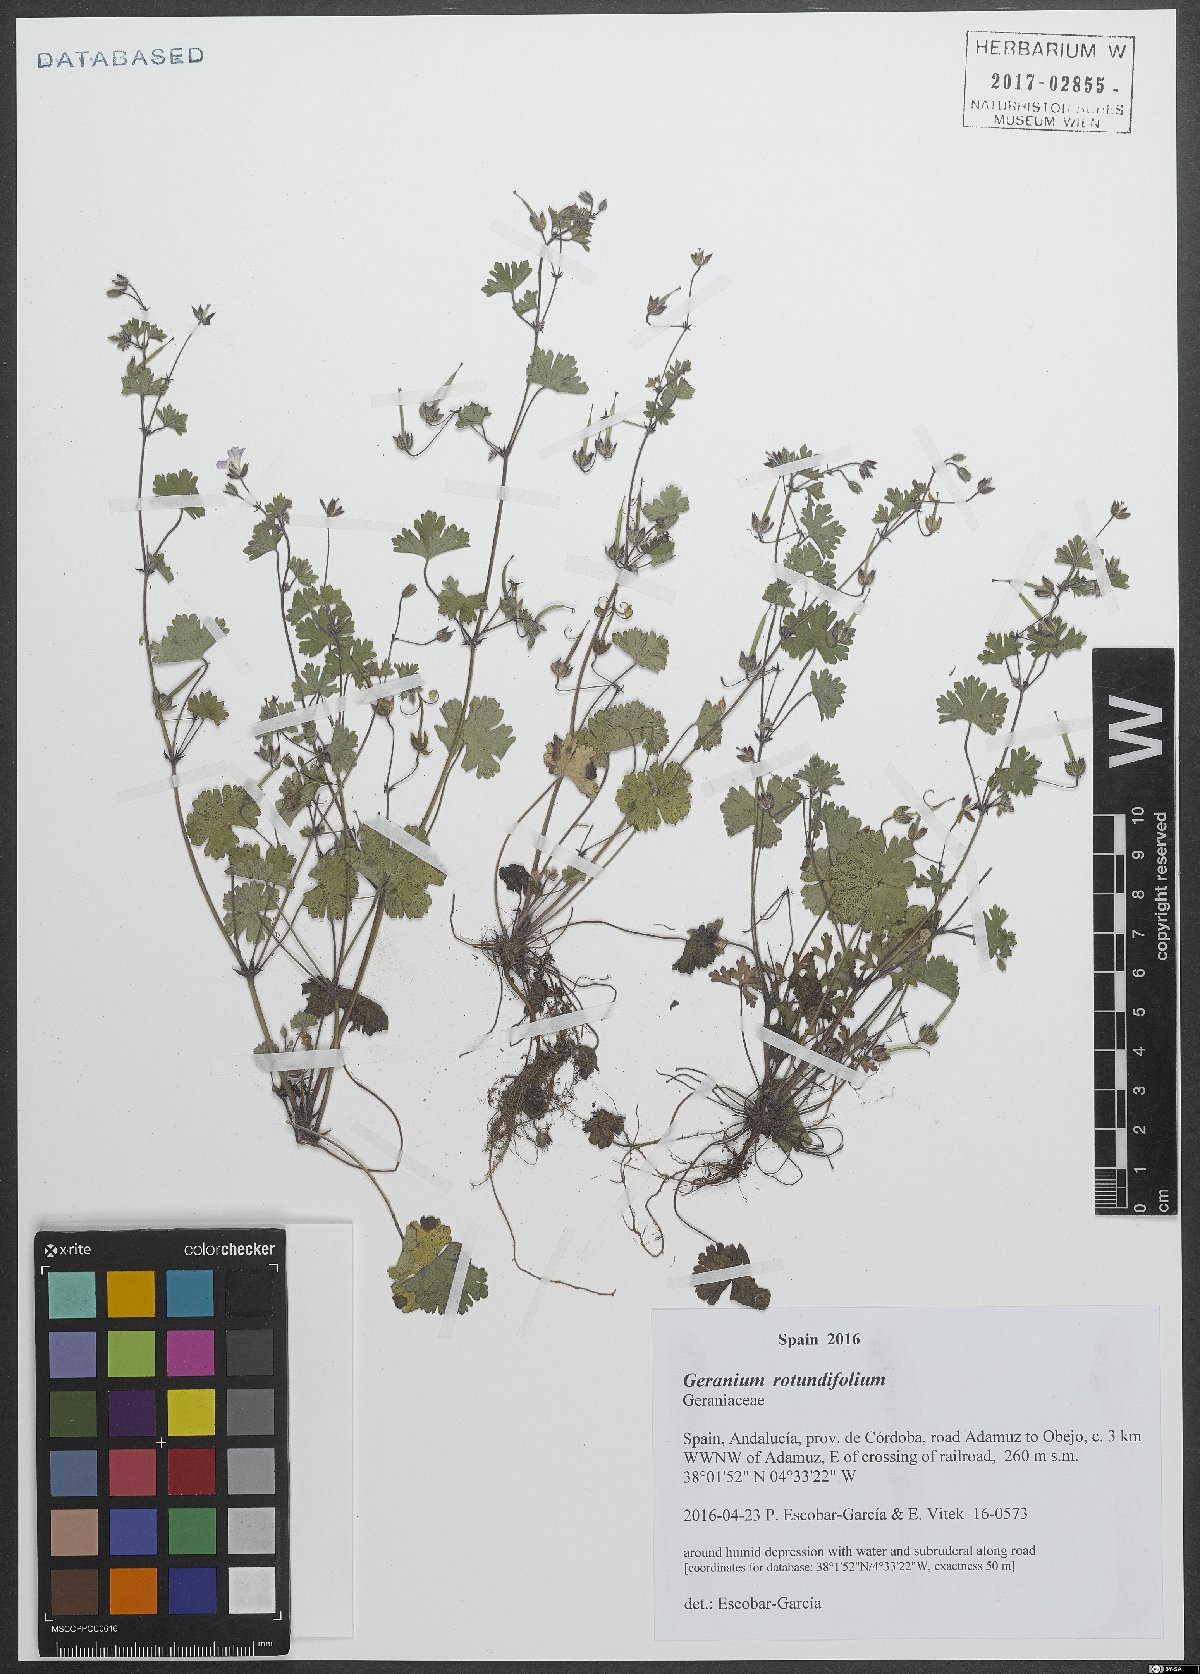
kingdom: Plantae
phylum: Tracheophyta
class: Magnoliopsida
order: Geraniales
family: Geraniaceae
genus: Geranium
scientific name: Geranium rotundifolium
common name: Round-leaved crane's-bill
